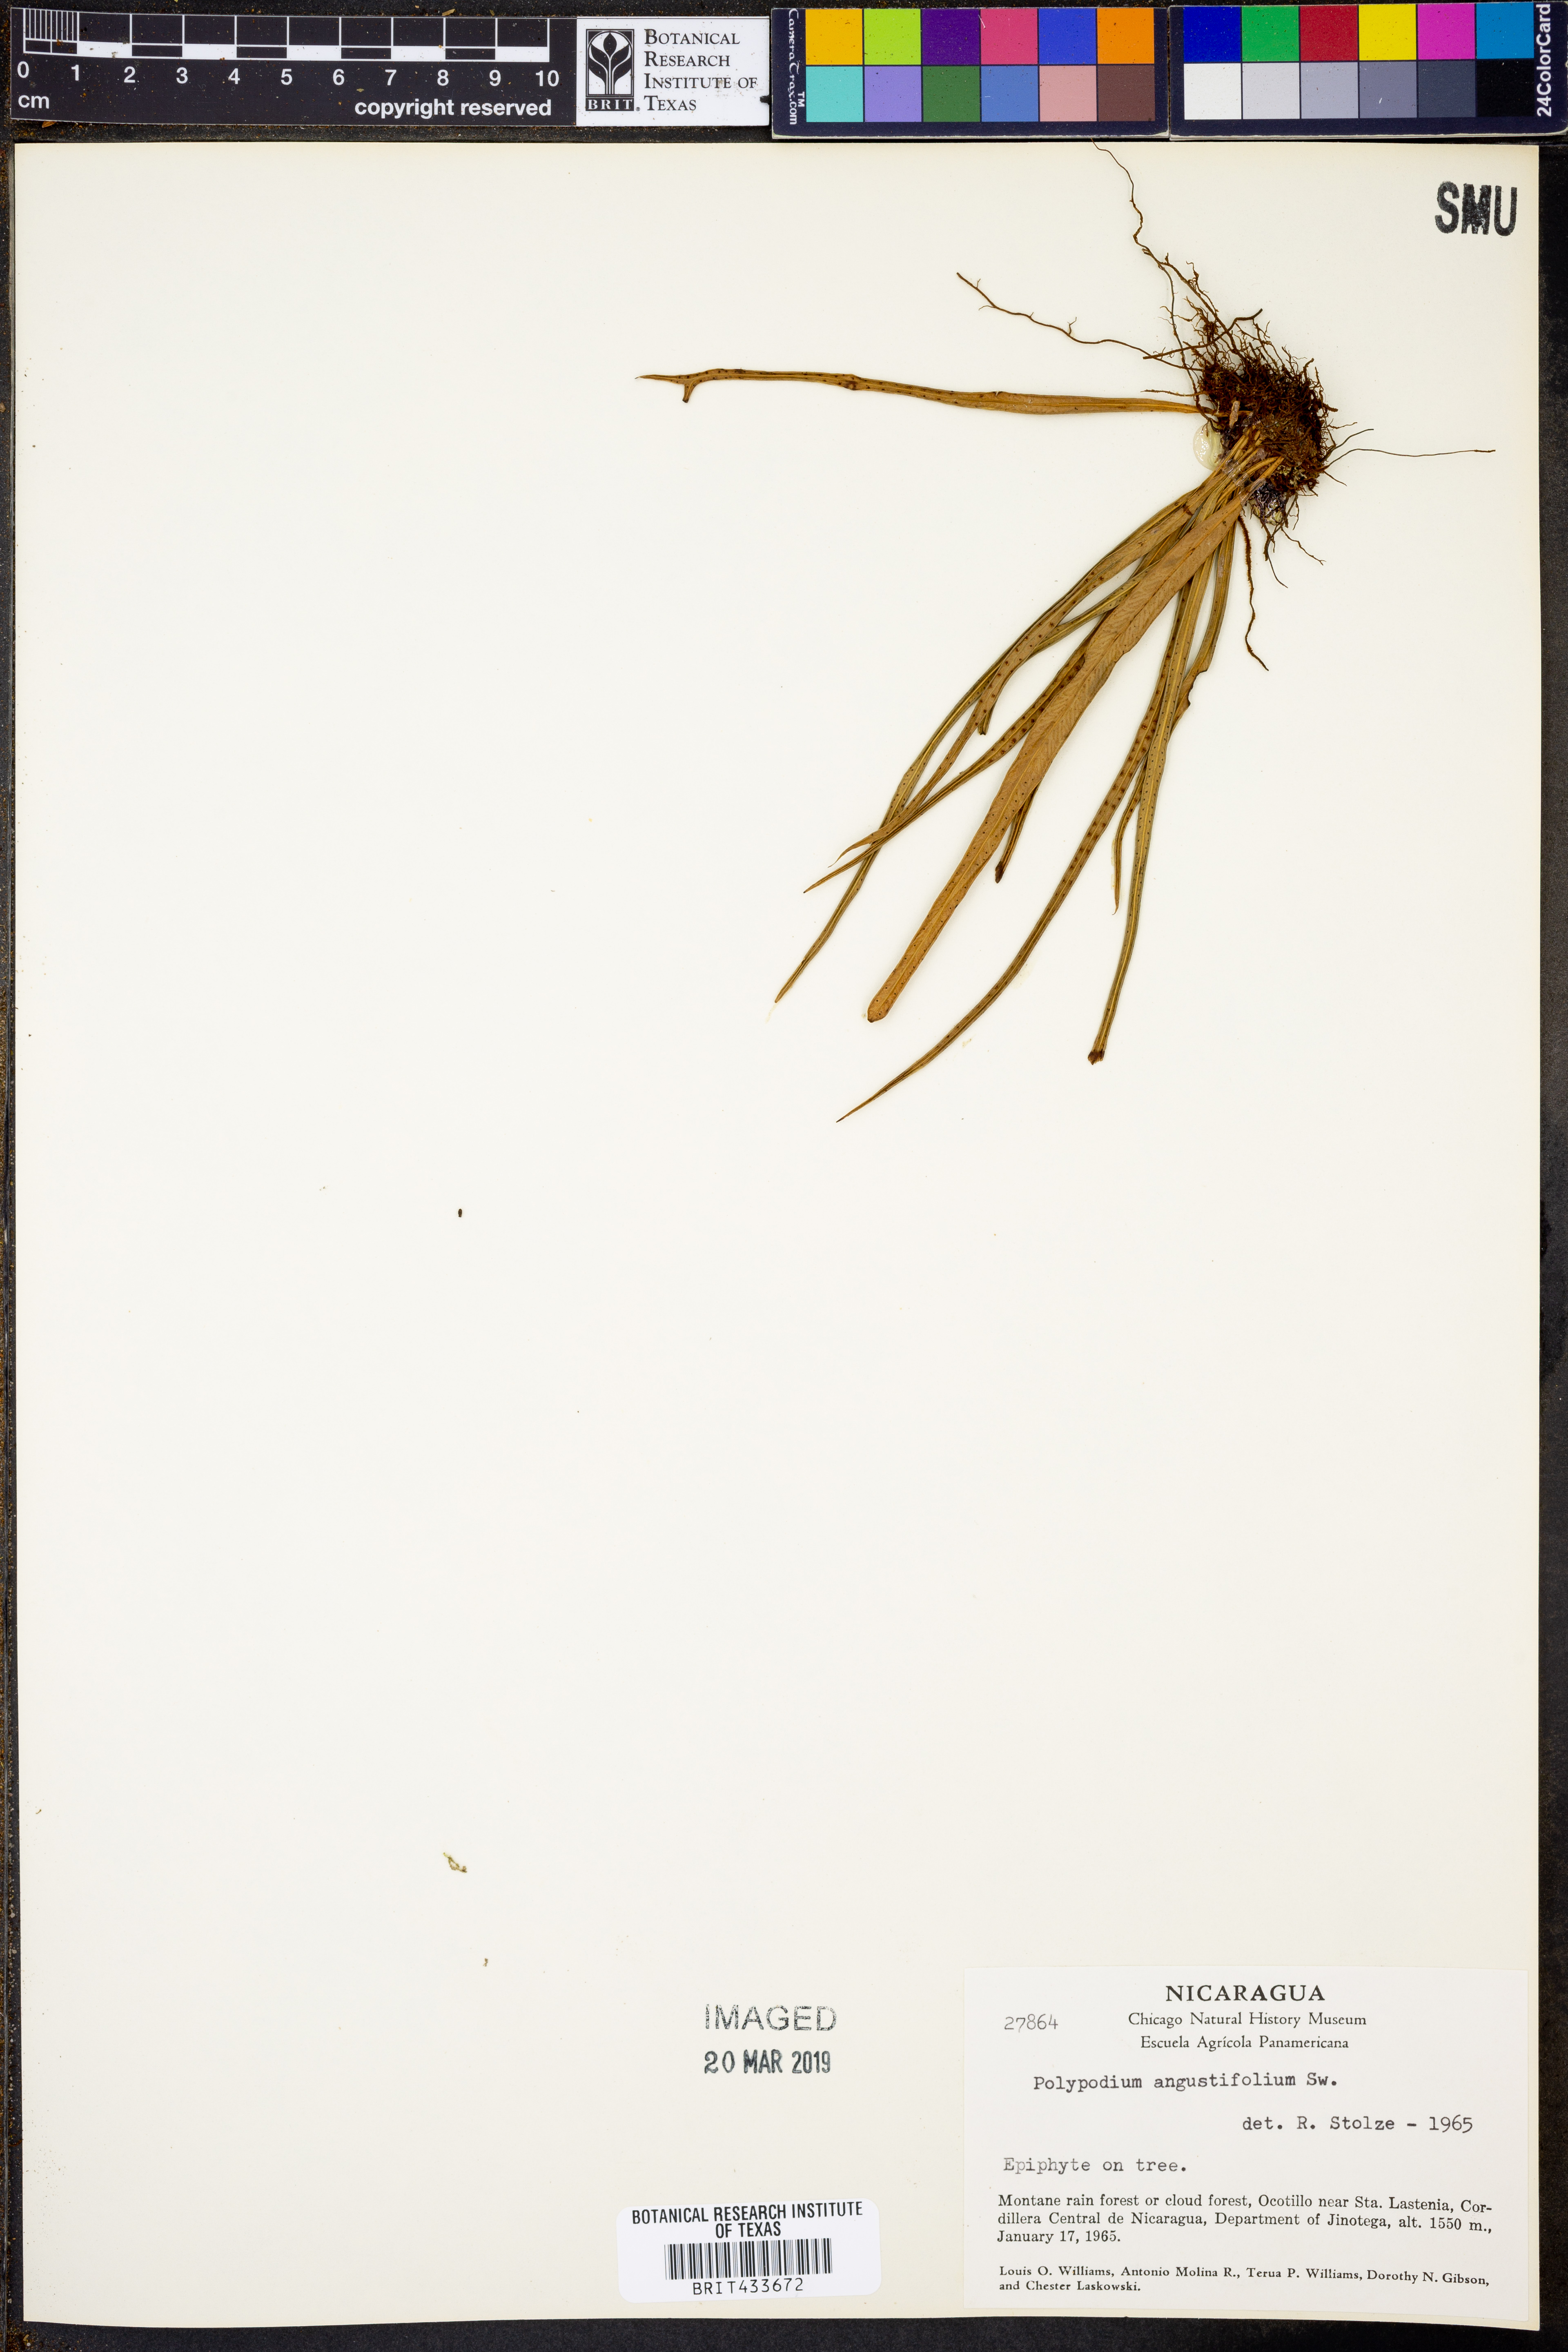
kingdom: Plantae
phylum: Tracheophyta
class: Polypodiopsida
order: Polypodiales
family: Polypodiaceae
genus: Campyloneurum
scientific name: Campyloneurum angustifolium
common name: Narrow-leaf strap fern
